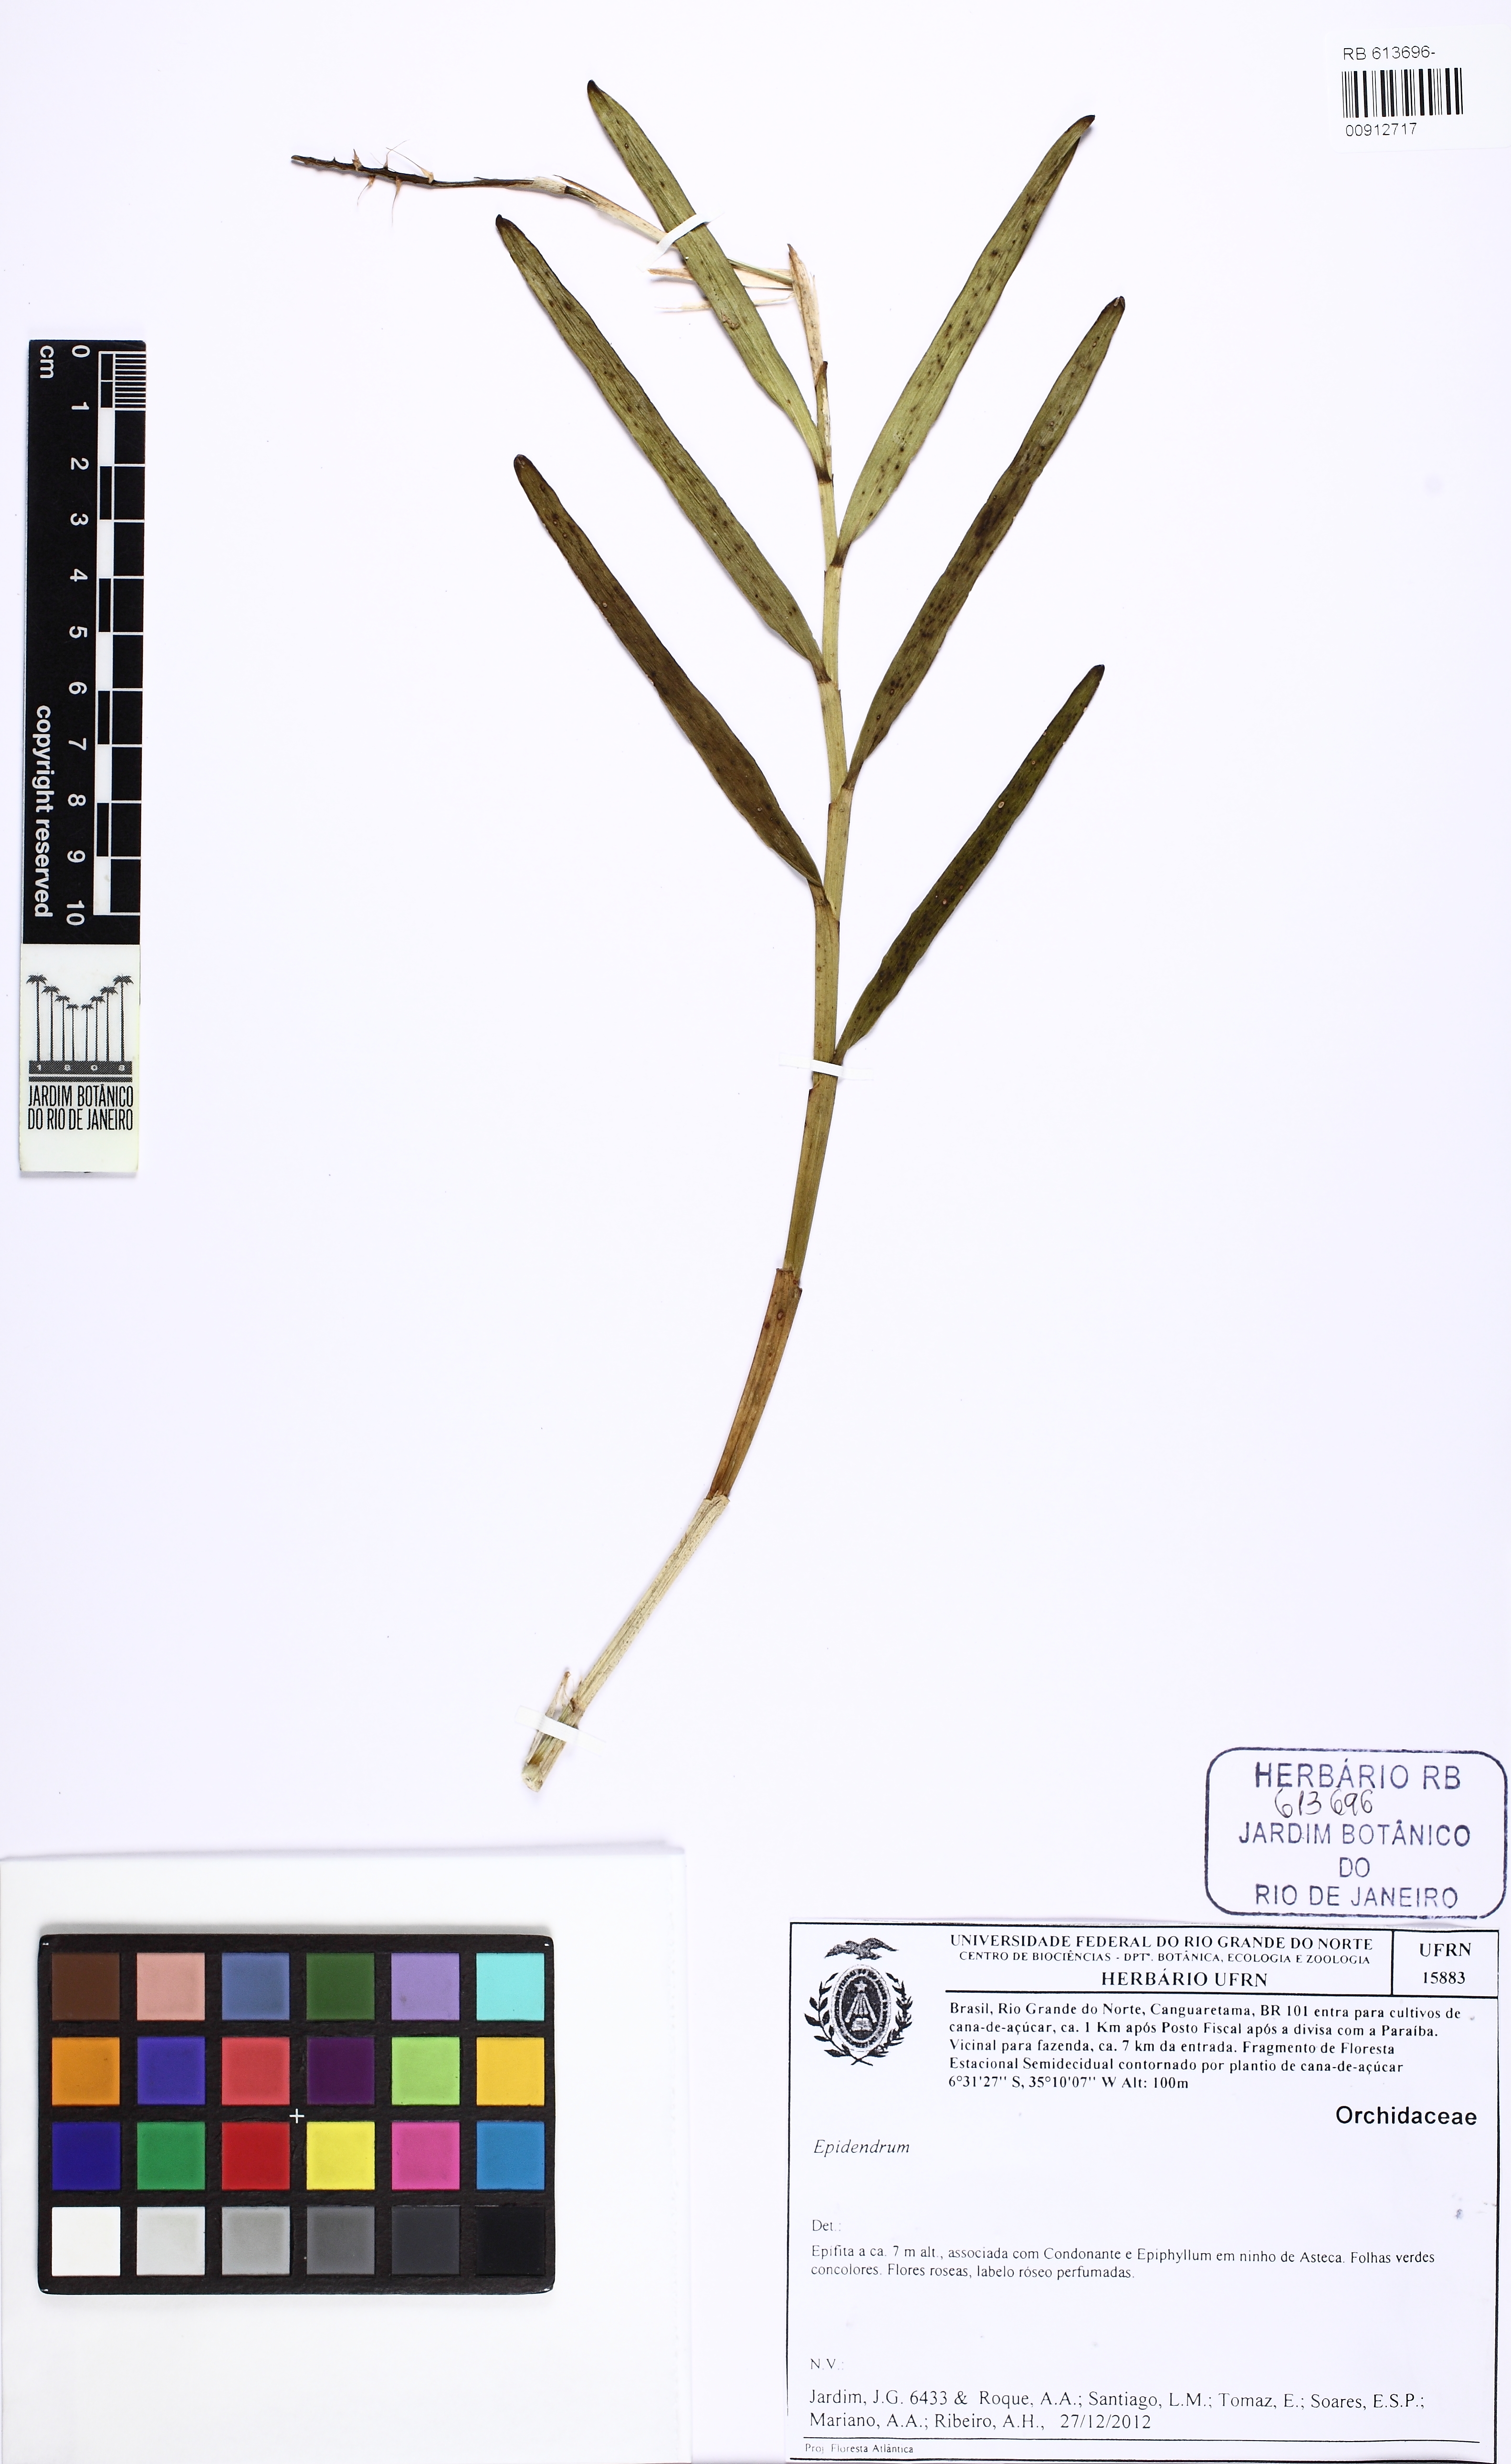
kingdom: Plantae
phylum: Tracheophyta
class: Liliopsida
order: Asparagales
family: Orchidaceae
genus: Epidendrum
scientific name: Epidendrum flexuosum
